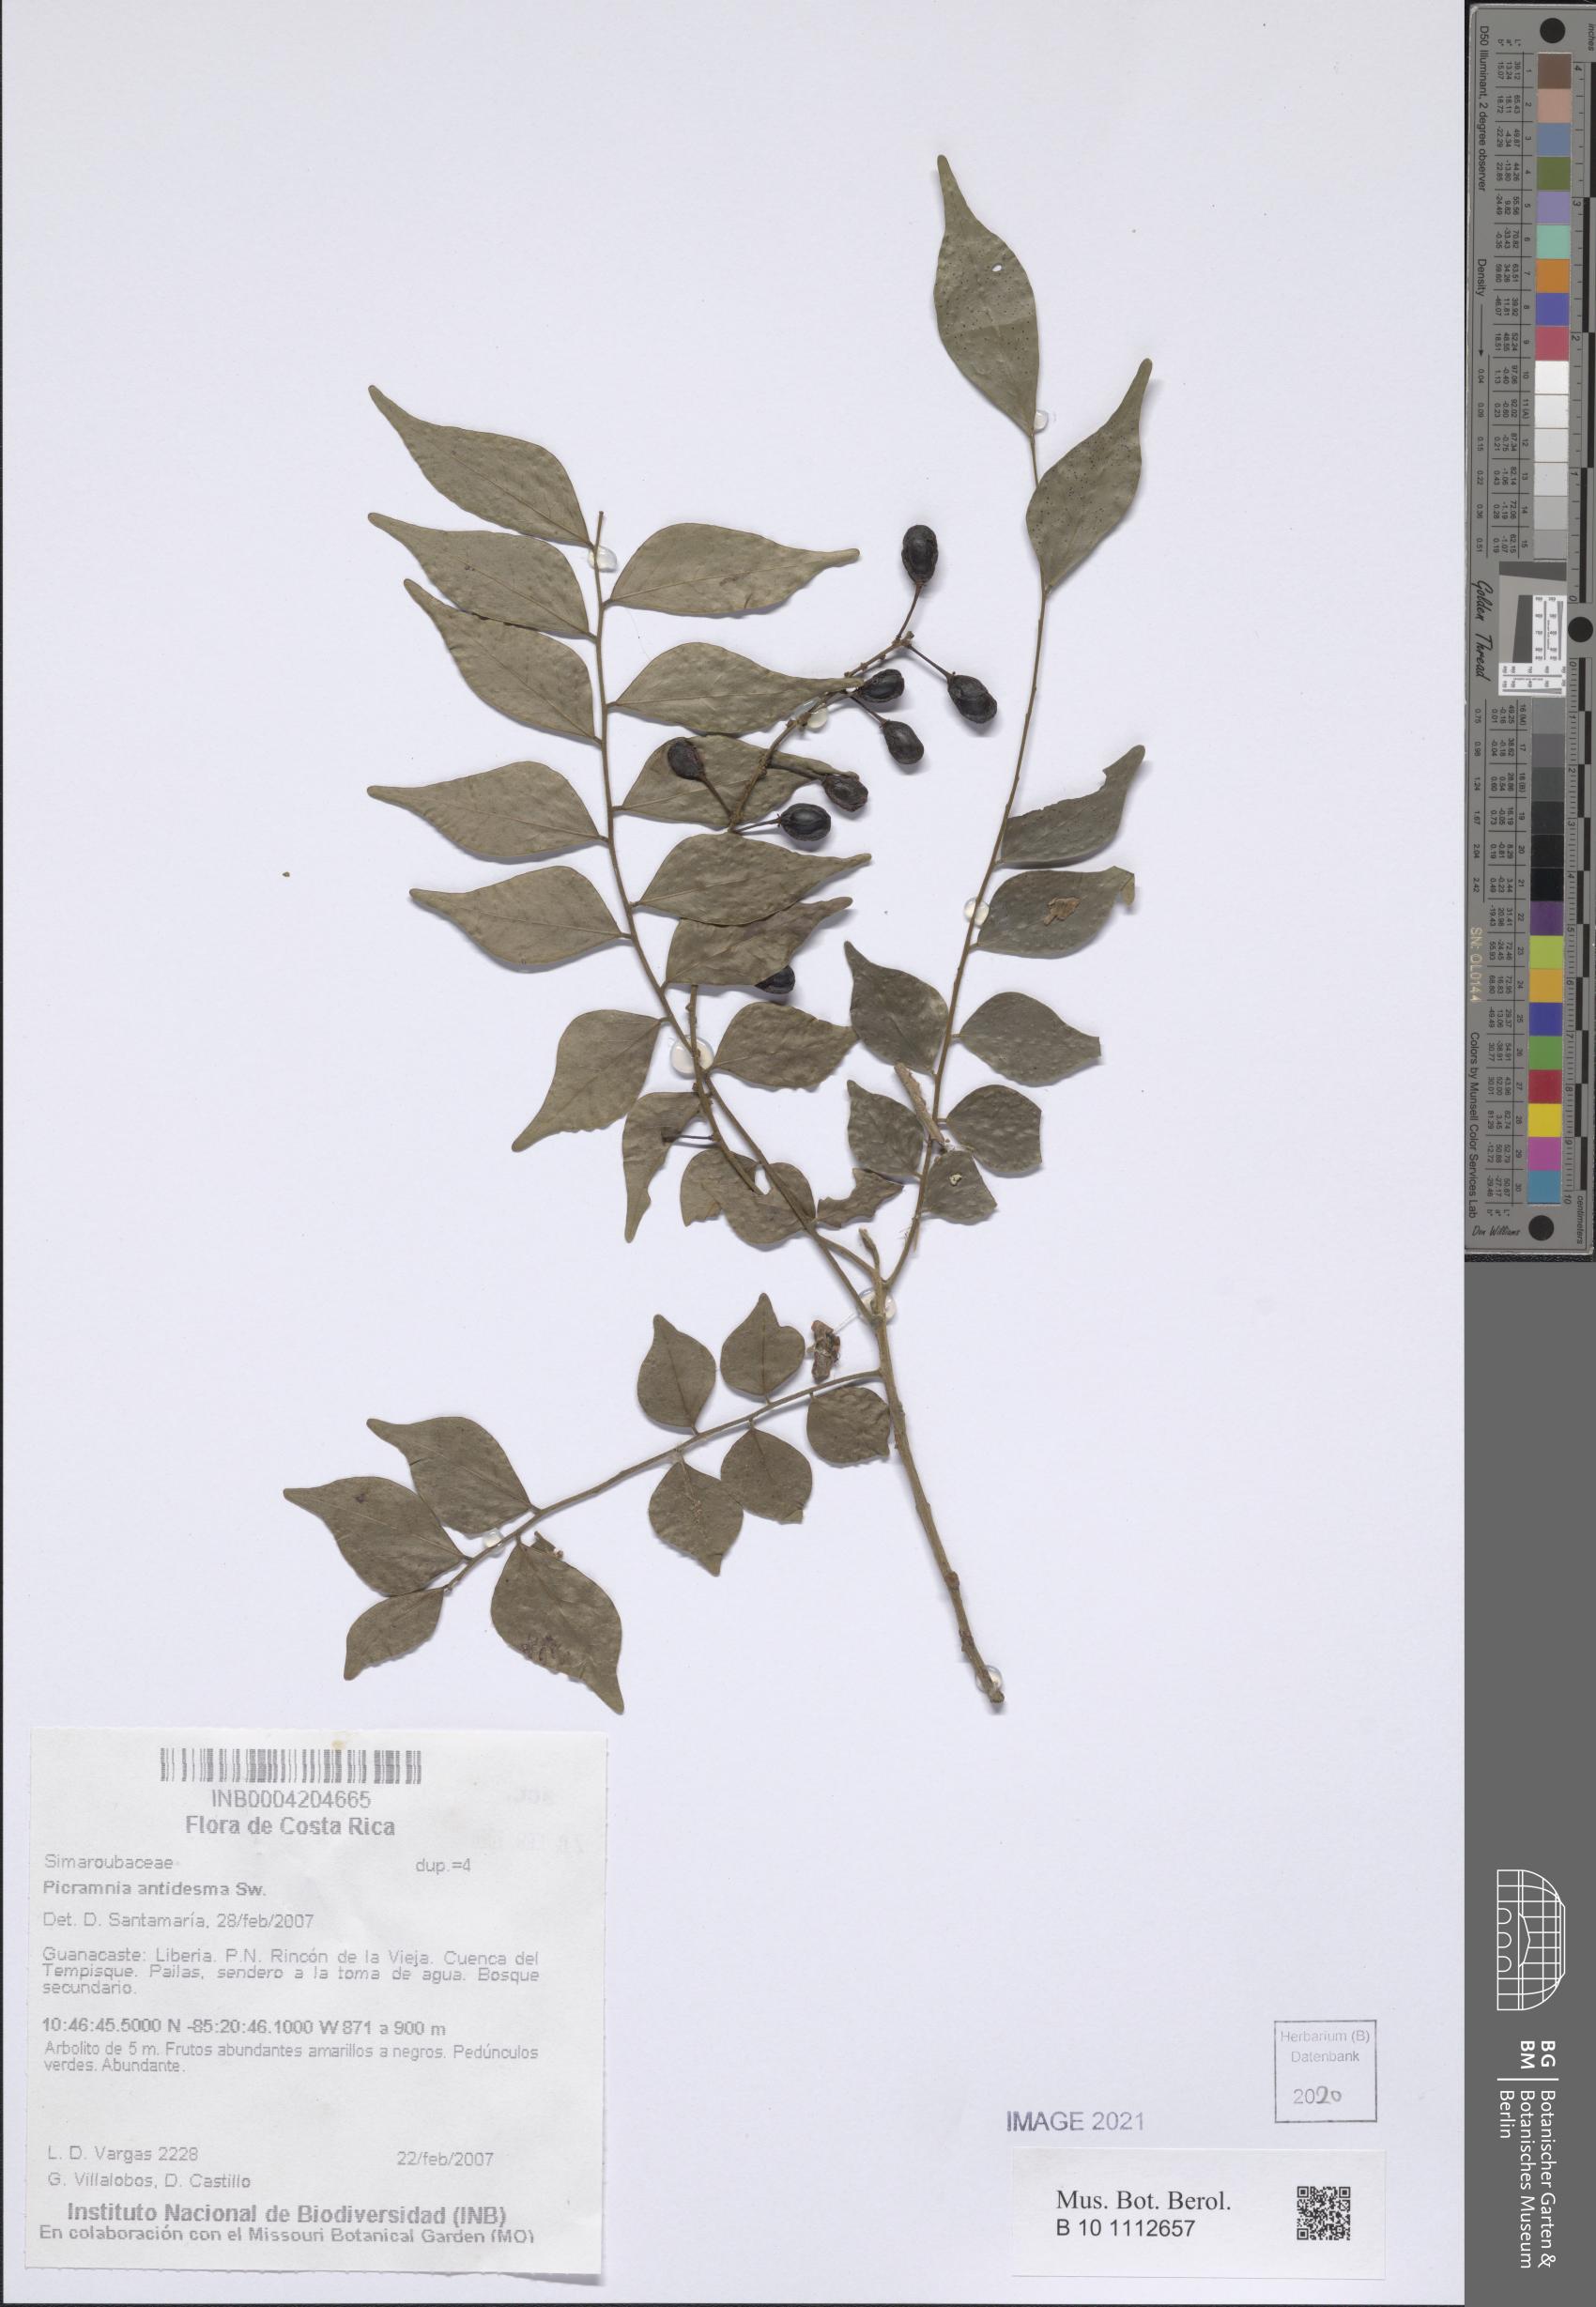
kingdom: Plantae
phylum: Tracheophyta
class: Magnoliopsida
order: Picramniales
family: Picramniaceae
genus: Picramnia
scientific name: Picramnia antidesma
